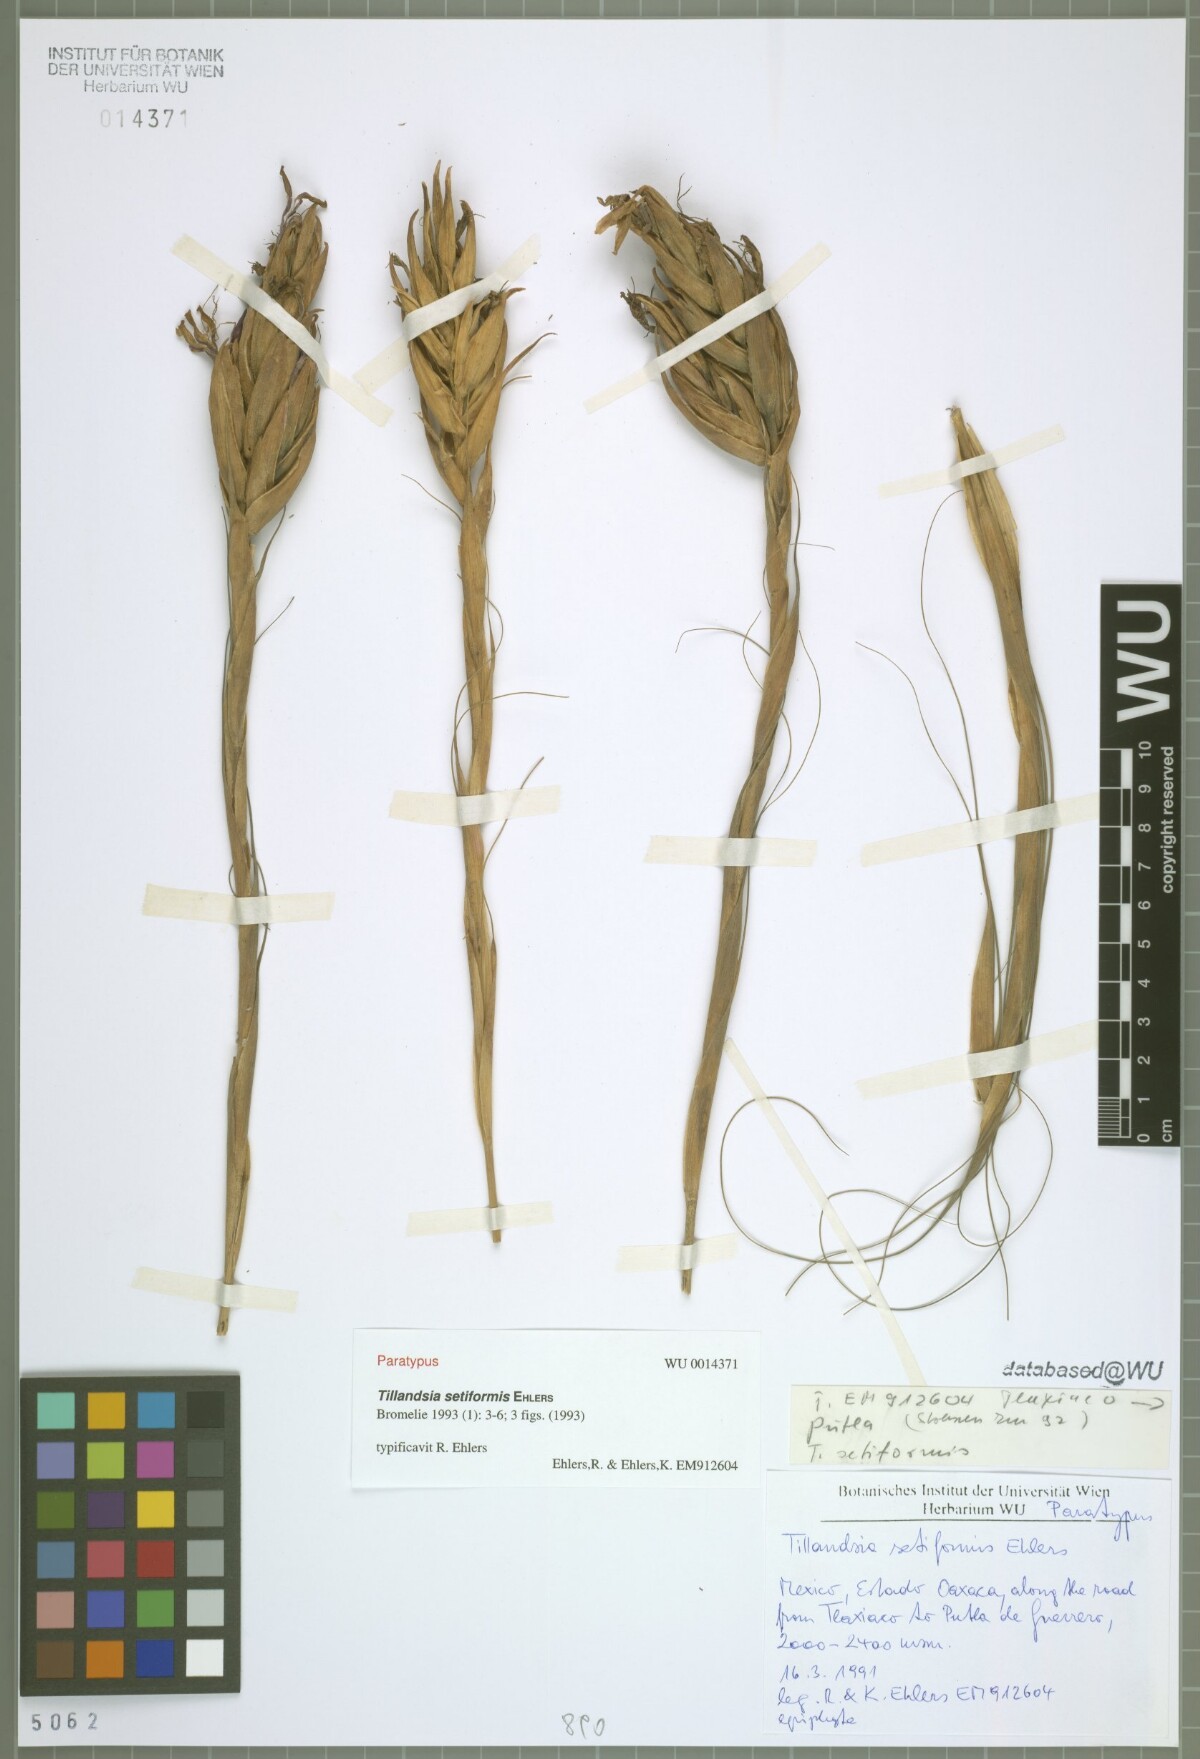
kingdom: Plantae
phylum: Tracheophyta
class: Liliopsida
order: Poales
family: Bromeliaceae
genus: Tillandsia
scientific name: Tillandsia setiformis
